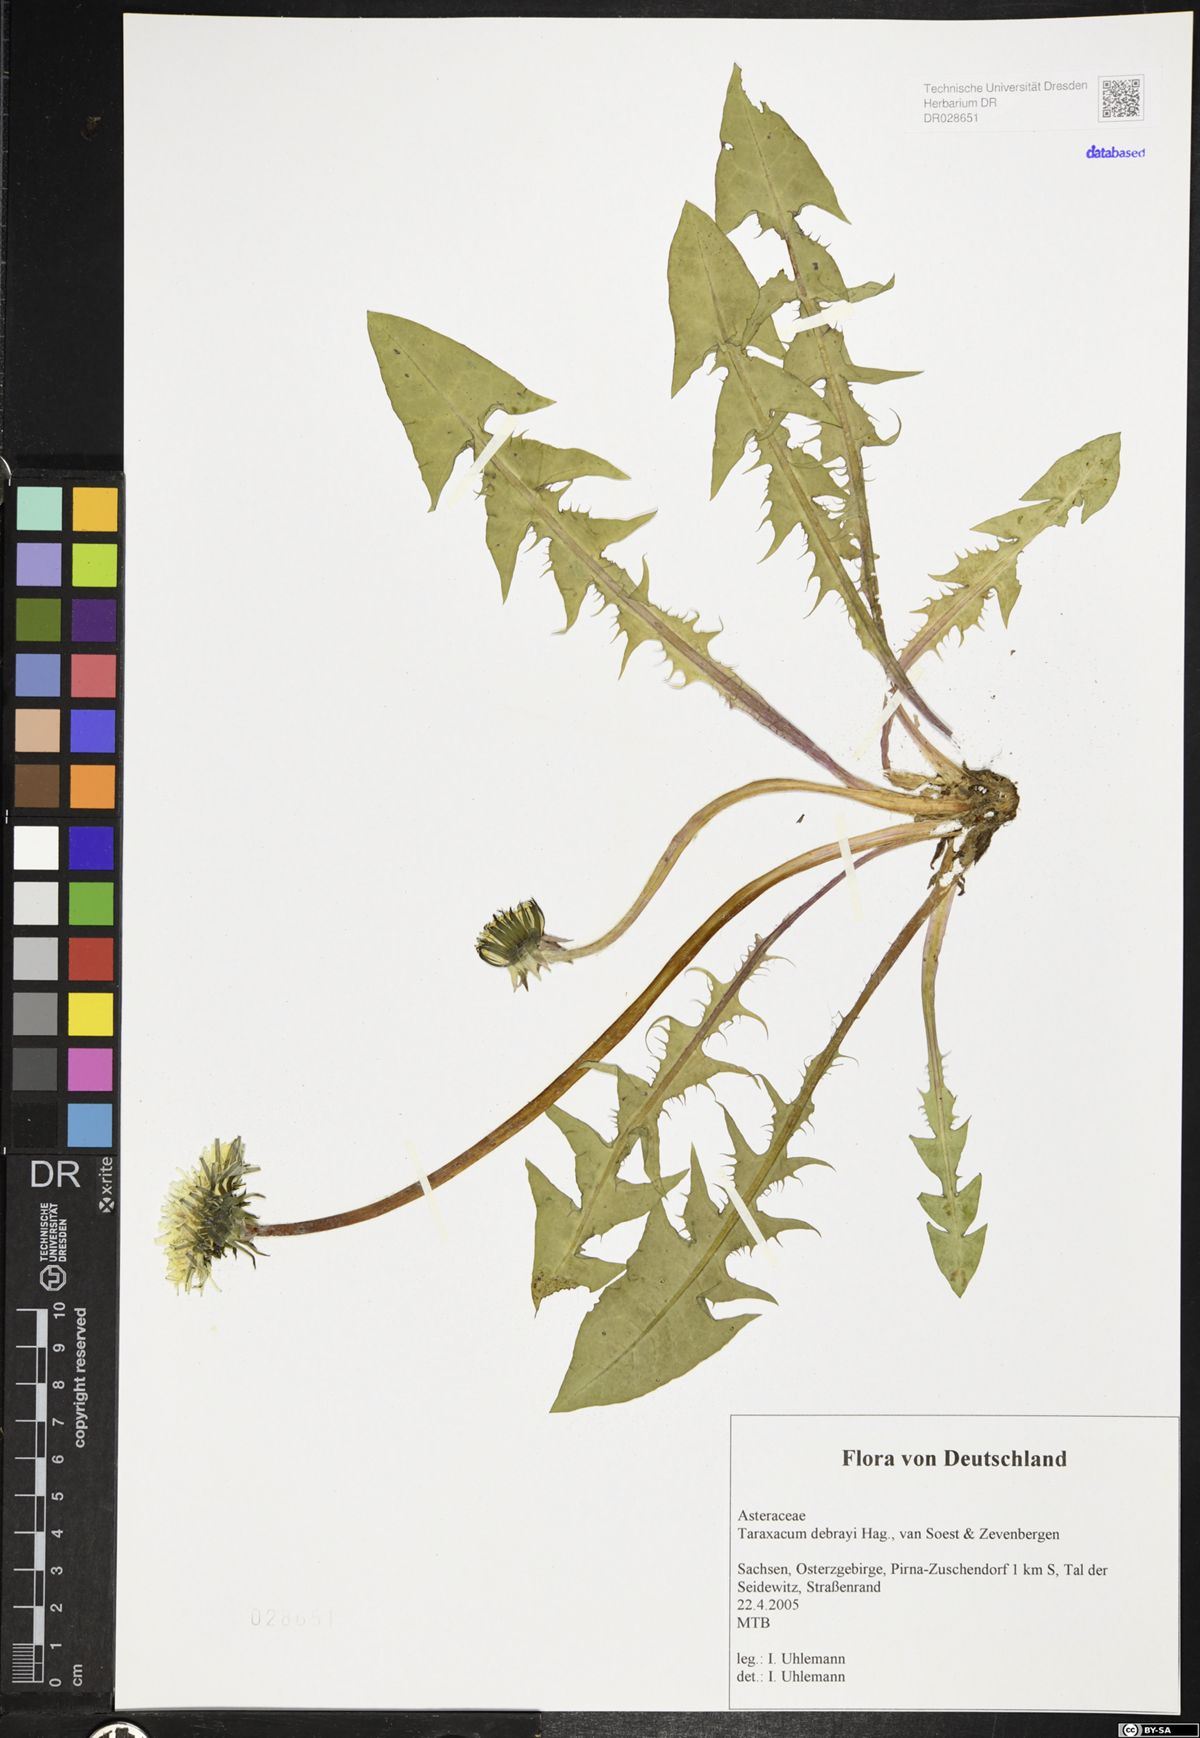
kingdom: Plantae
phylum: Tracheophyta
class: Magnoliopsida
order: Asterales
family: Asteraceae
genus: Taraxacum
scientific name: Taraxacum debrayi
